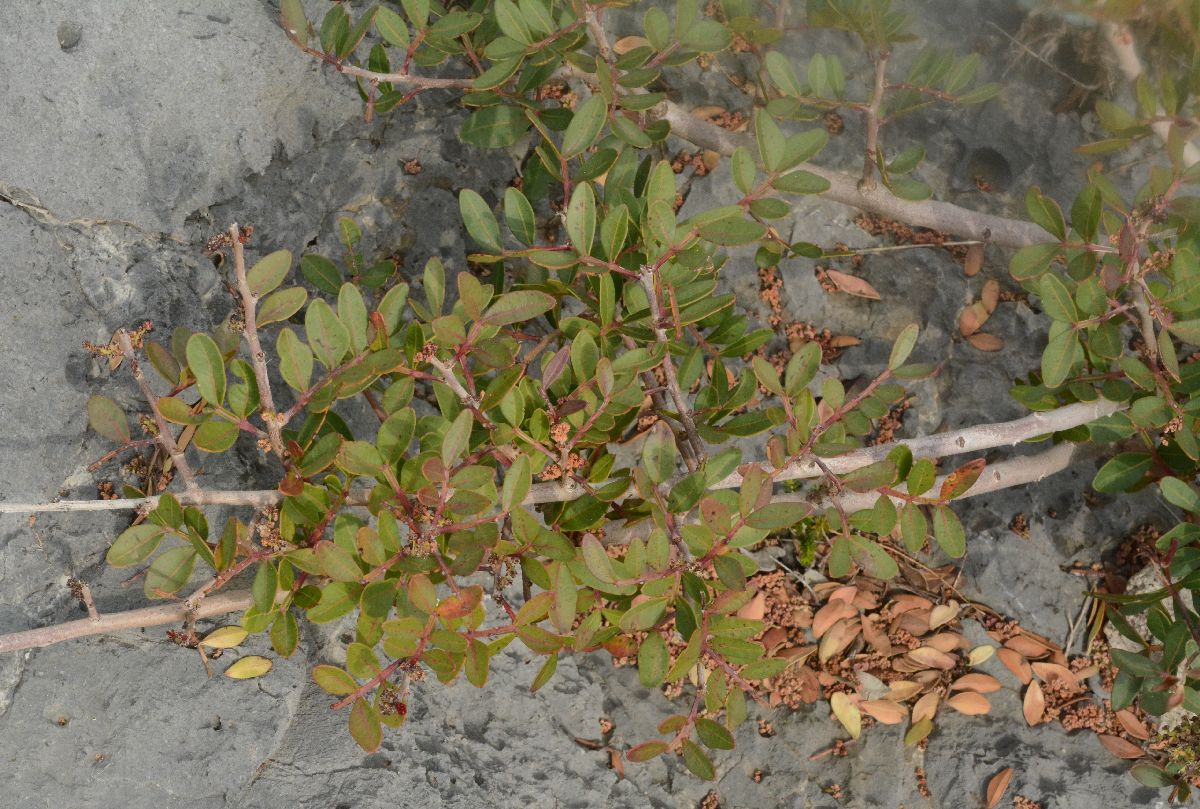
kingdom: Plantae
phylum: Tracheophyta
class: Magnoliopsida
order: Sapindales
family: Anacardiaceae
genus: Pistacia
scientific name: Pistacia lentiscus
